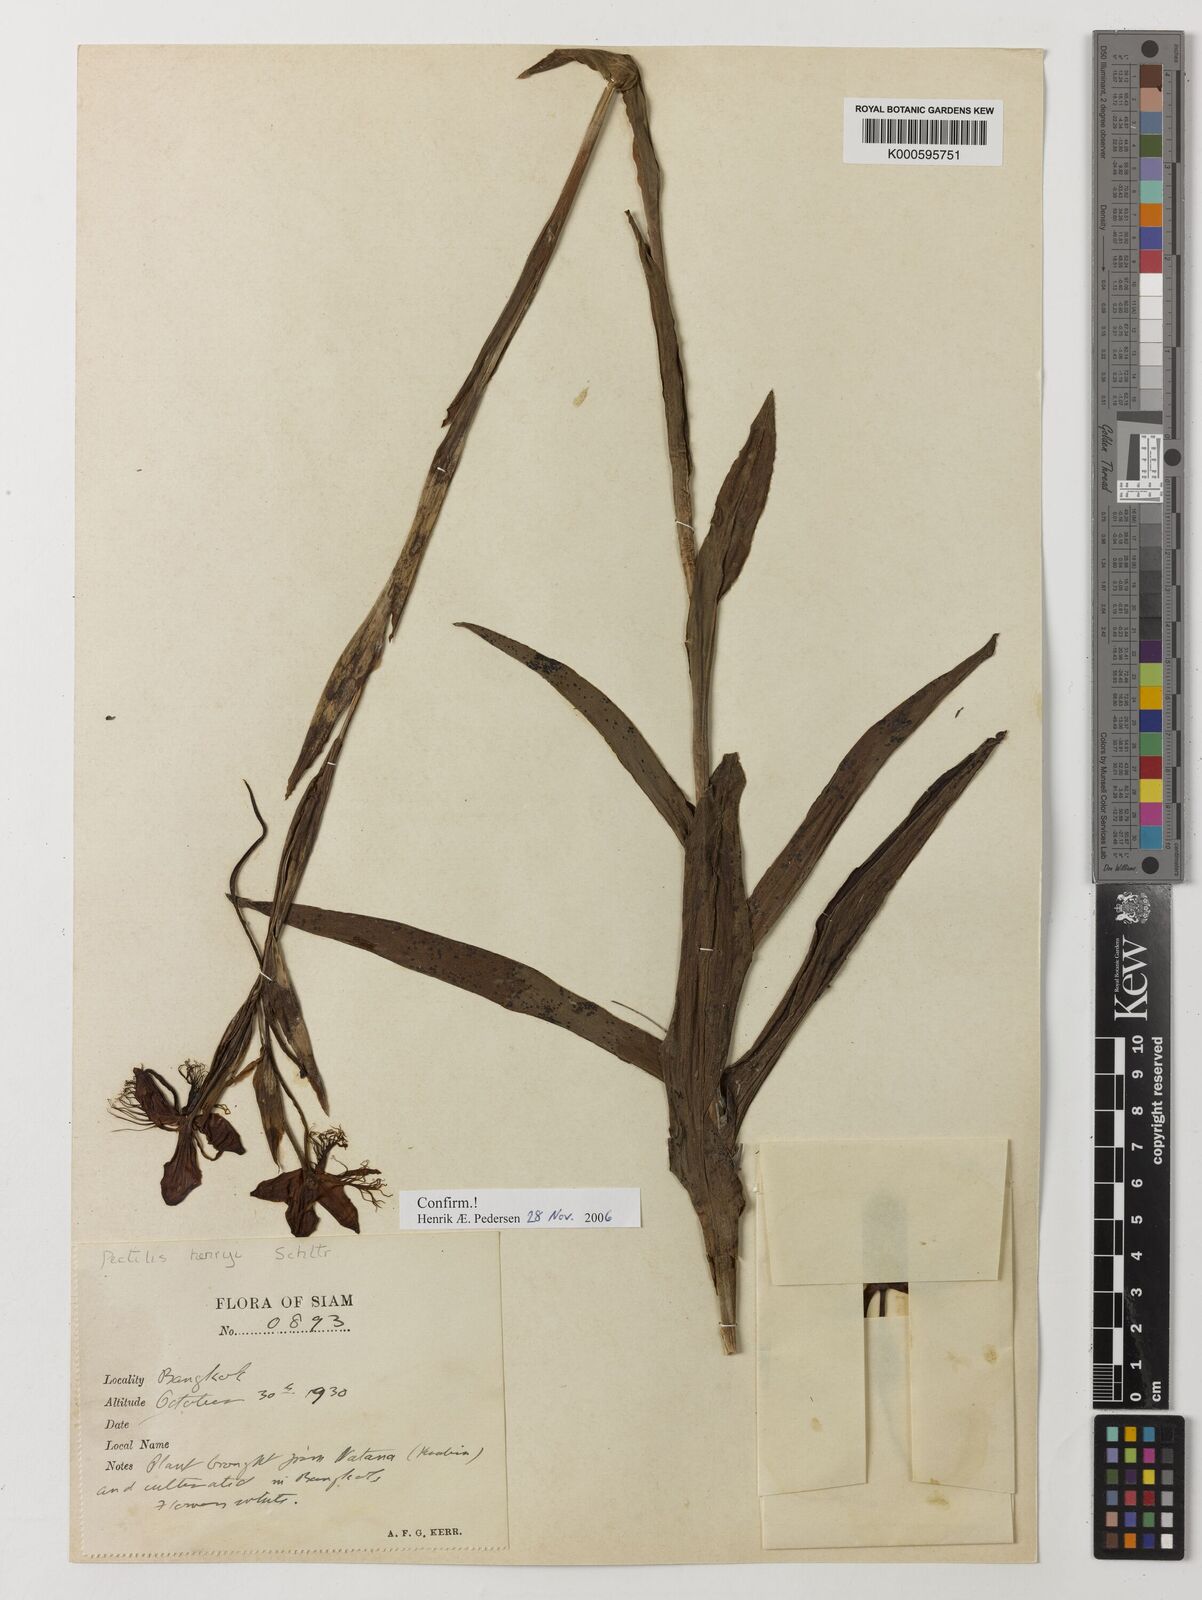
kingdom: Plantae
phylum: Tracheophyta
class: Liliopsida
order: Asparagales
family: Orchidaceae
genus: Pecteilis
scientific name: Pecteilis henryi
